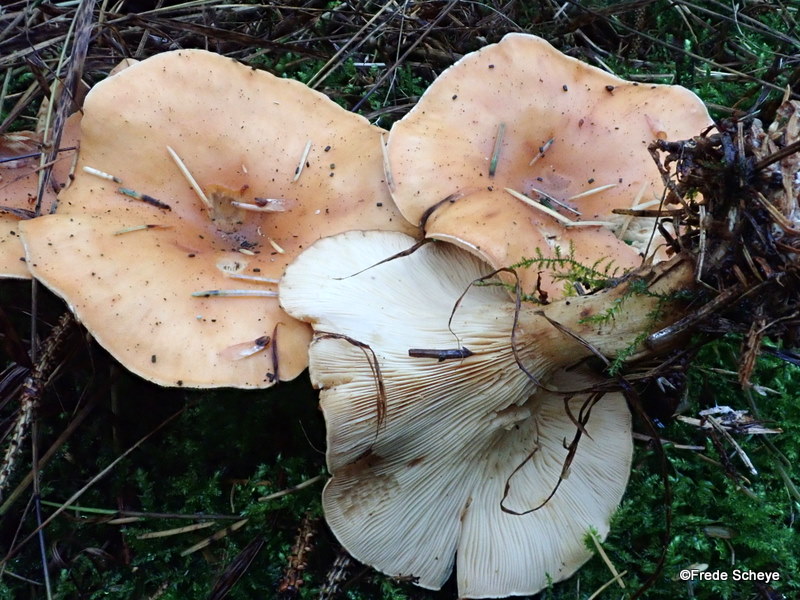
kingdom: Fungi
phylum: Basidiomycota
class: Agaricomycetes
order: Agaricales
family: Tricholomataceae
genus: Paralepista
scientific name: Paralepista flaccida
